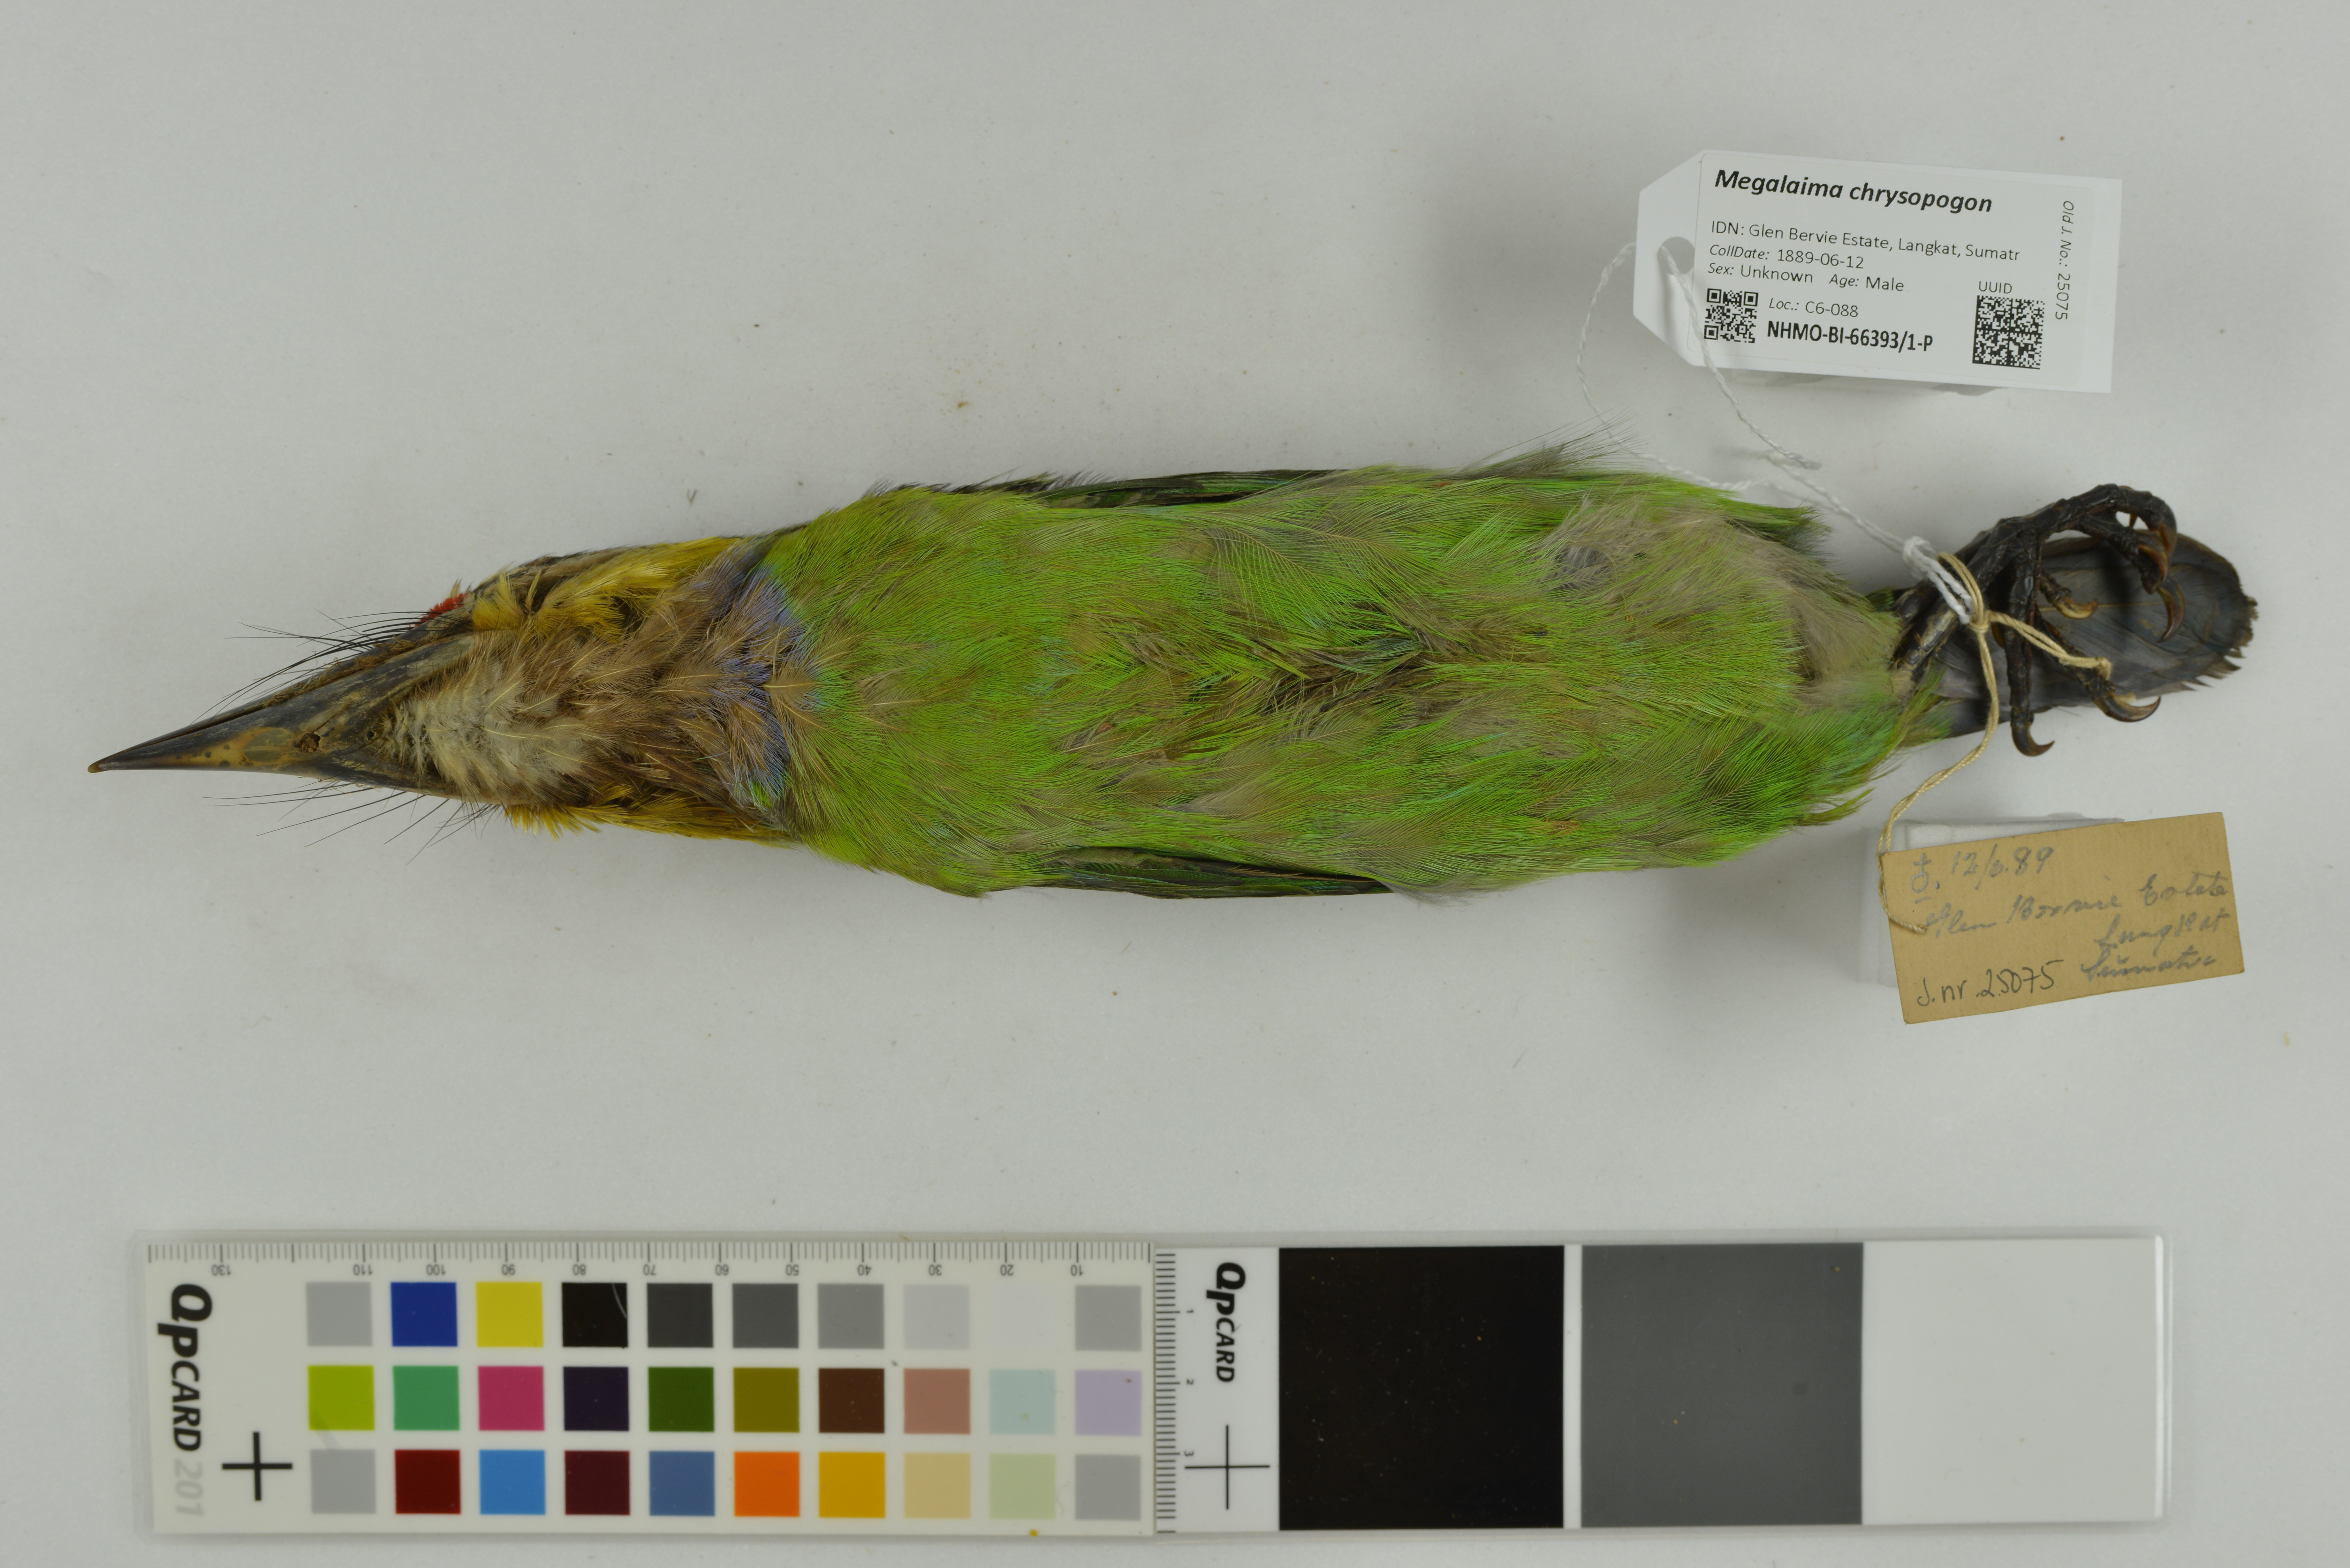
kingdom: Animalia
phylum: Chordata
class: Aves
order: Piciformes
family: Megalaimidae
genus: Psilopogon
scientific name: Psilopogon chrysopogon
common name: Golden-whiskered barbet
